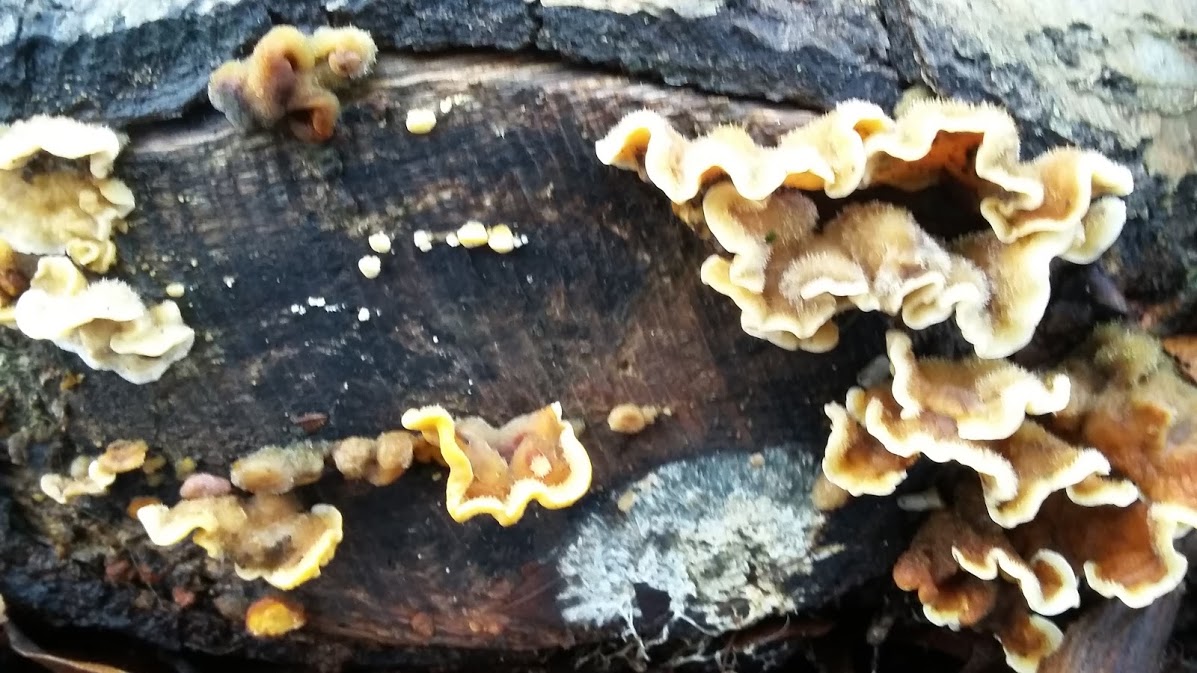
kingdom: Fungi
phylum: Basidiomycota
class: Agaricomycetes
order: Russulales
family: Stereaceae
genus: Stereum
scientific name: Stereum hirsutum
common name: håret lædersvamp
